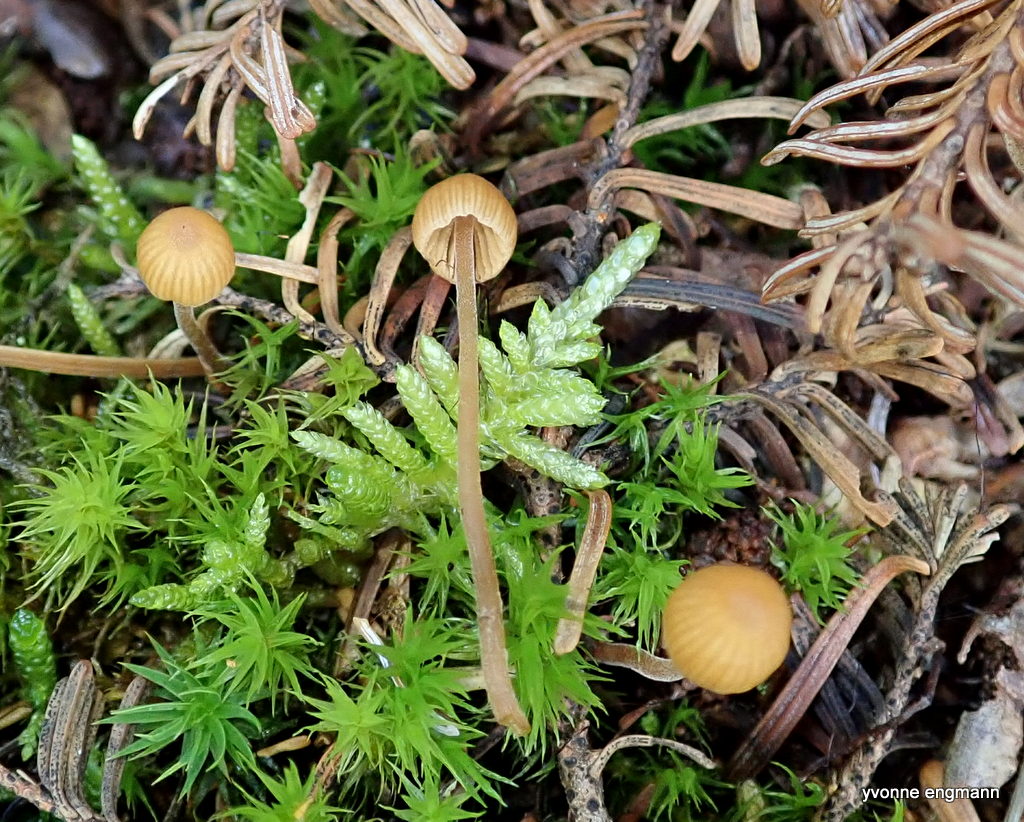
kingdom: Fungi
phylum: Basidiomycota
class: Agaricomycetes
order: Agaricales
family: Hymenogastraceae
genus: Galerina
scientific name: Galerina
